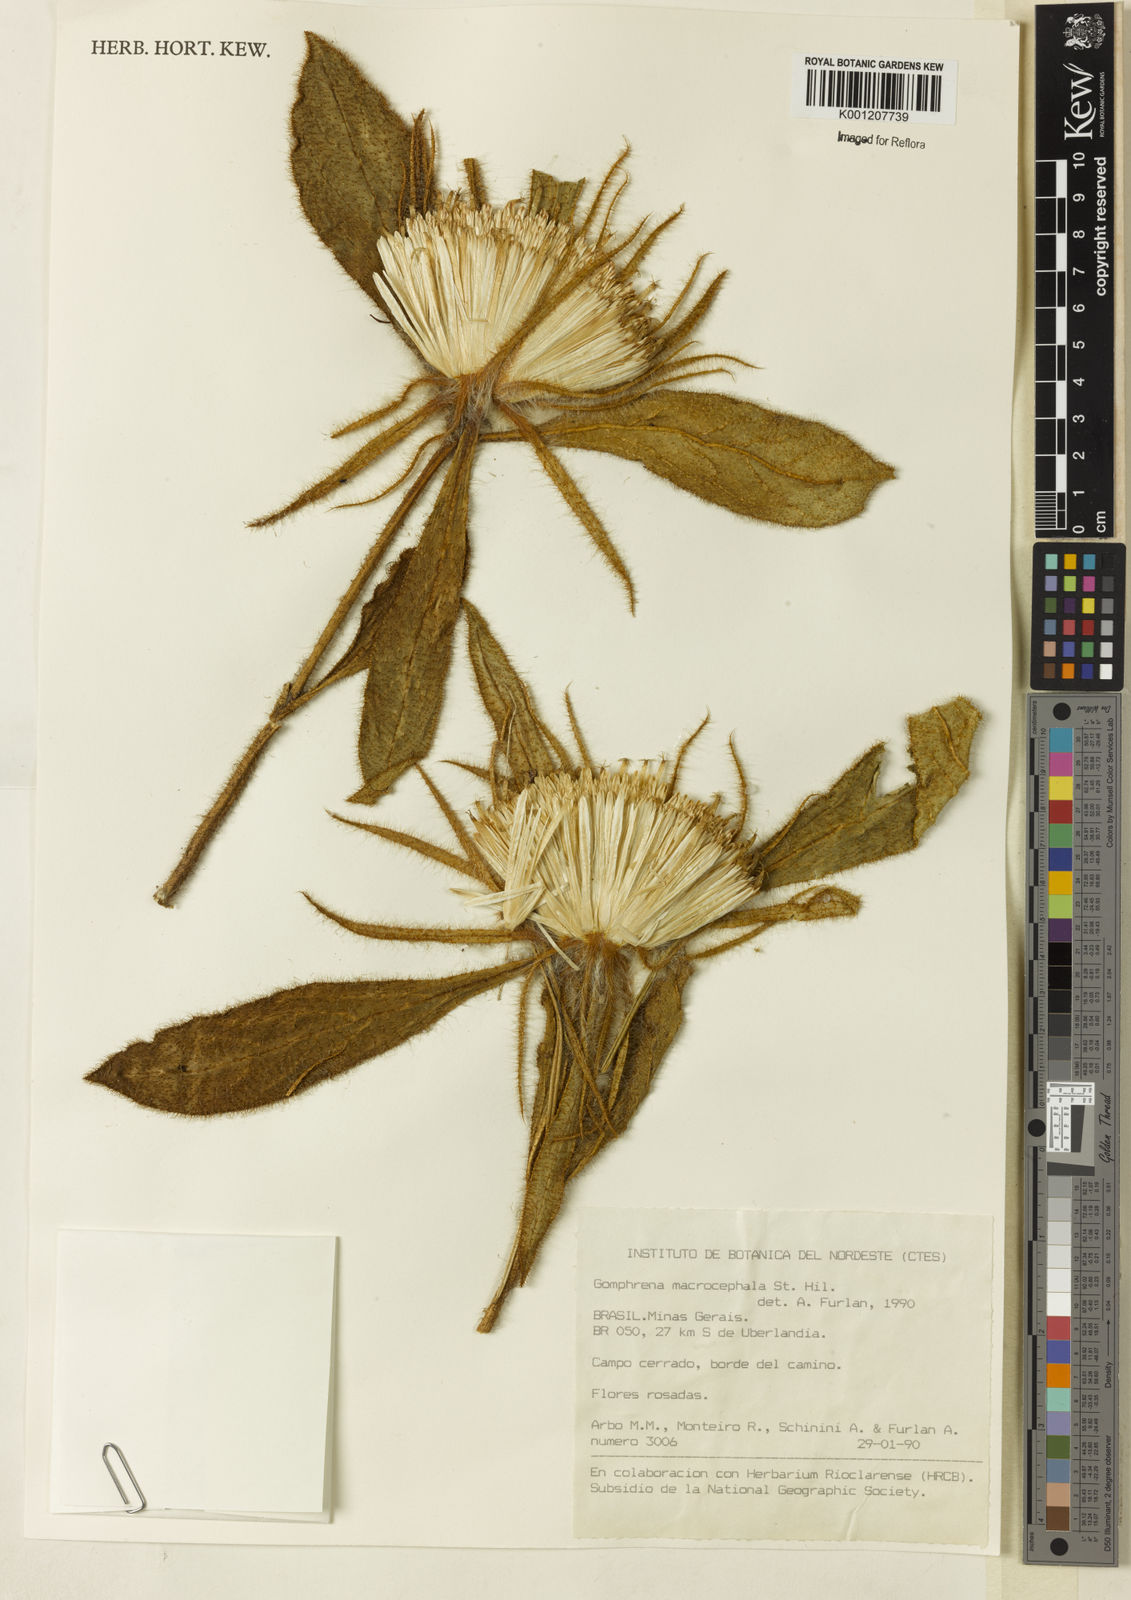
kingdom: Plantae
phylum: Tracheophyta
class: Magnoliopsida
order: Caryophyllales
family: Amaranthaceae
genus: Gomphrena
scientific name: Gomphrena macrocephala
